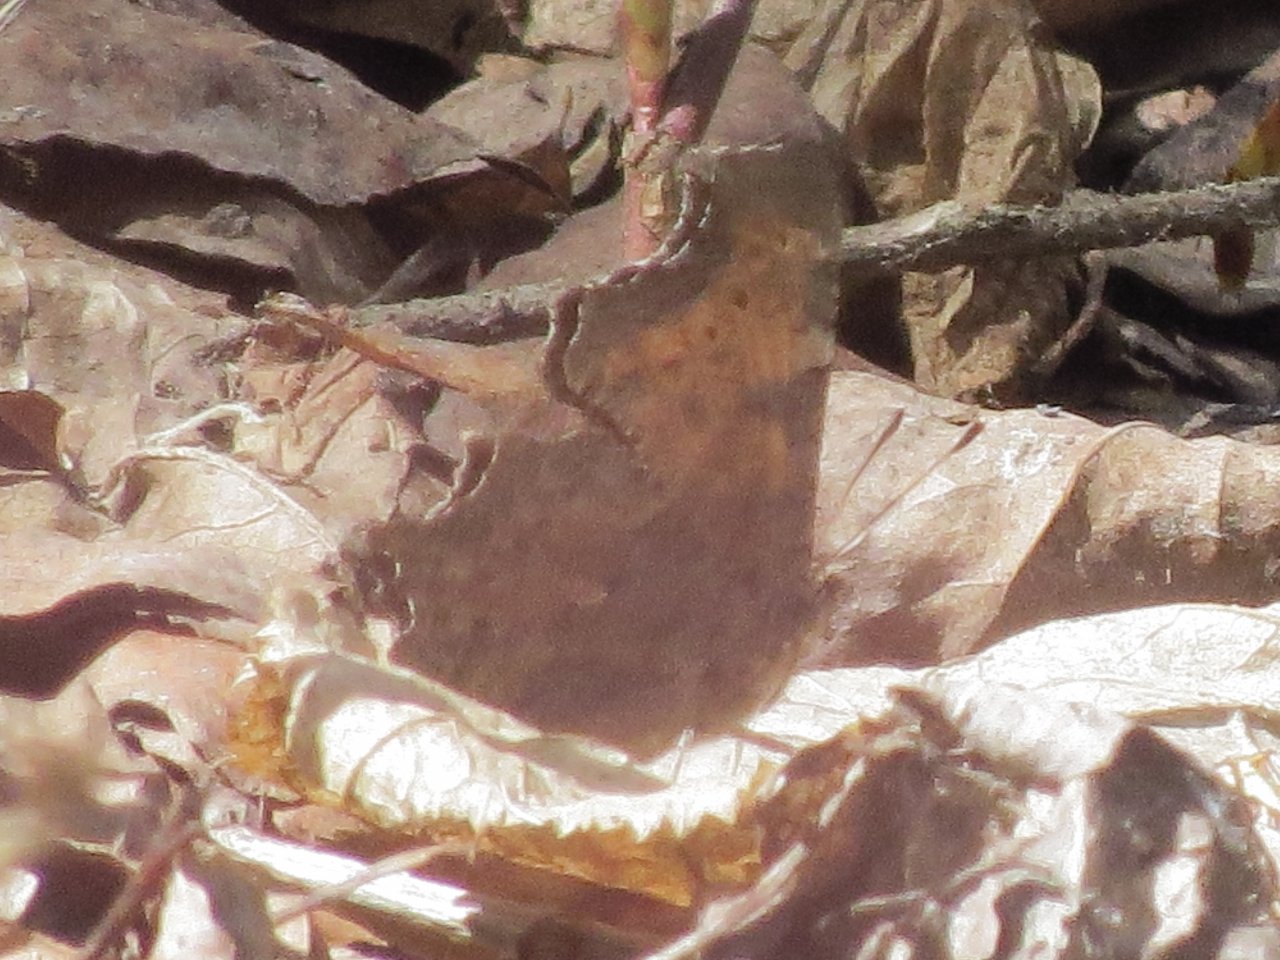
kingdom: Animalia
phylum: Arthropoda
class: Insecta
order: Lepidoptera
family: Nymphalidae
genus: Polygonia
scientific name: Polygonia satyrus
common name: Satyr Comma
